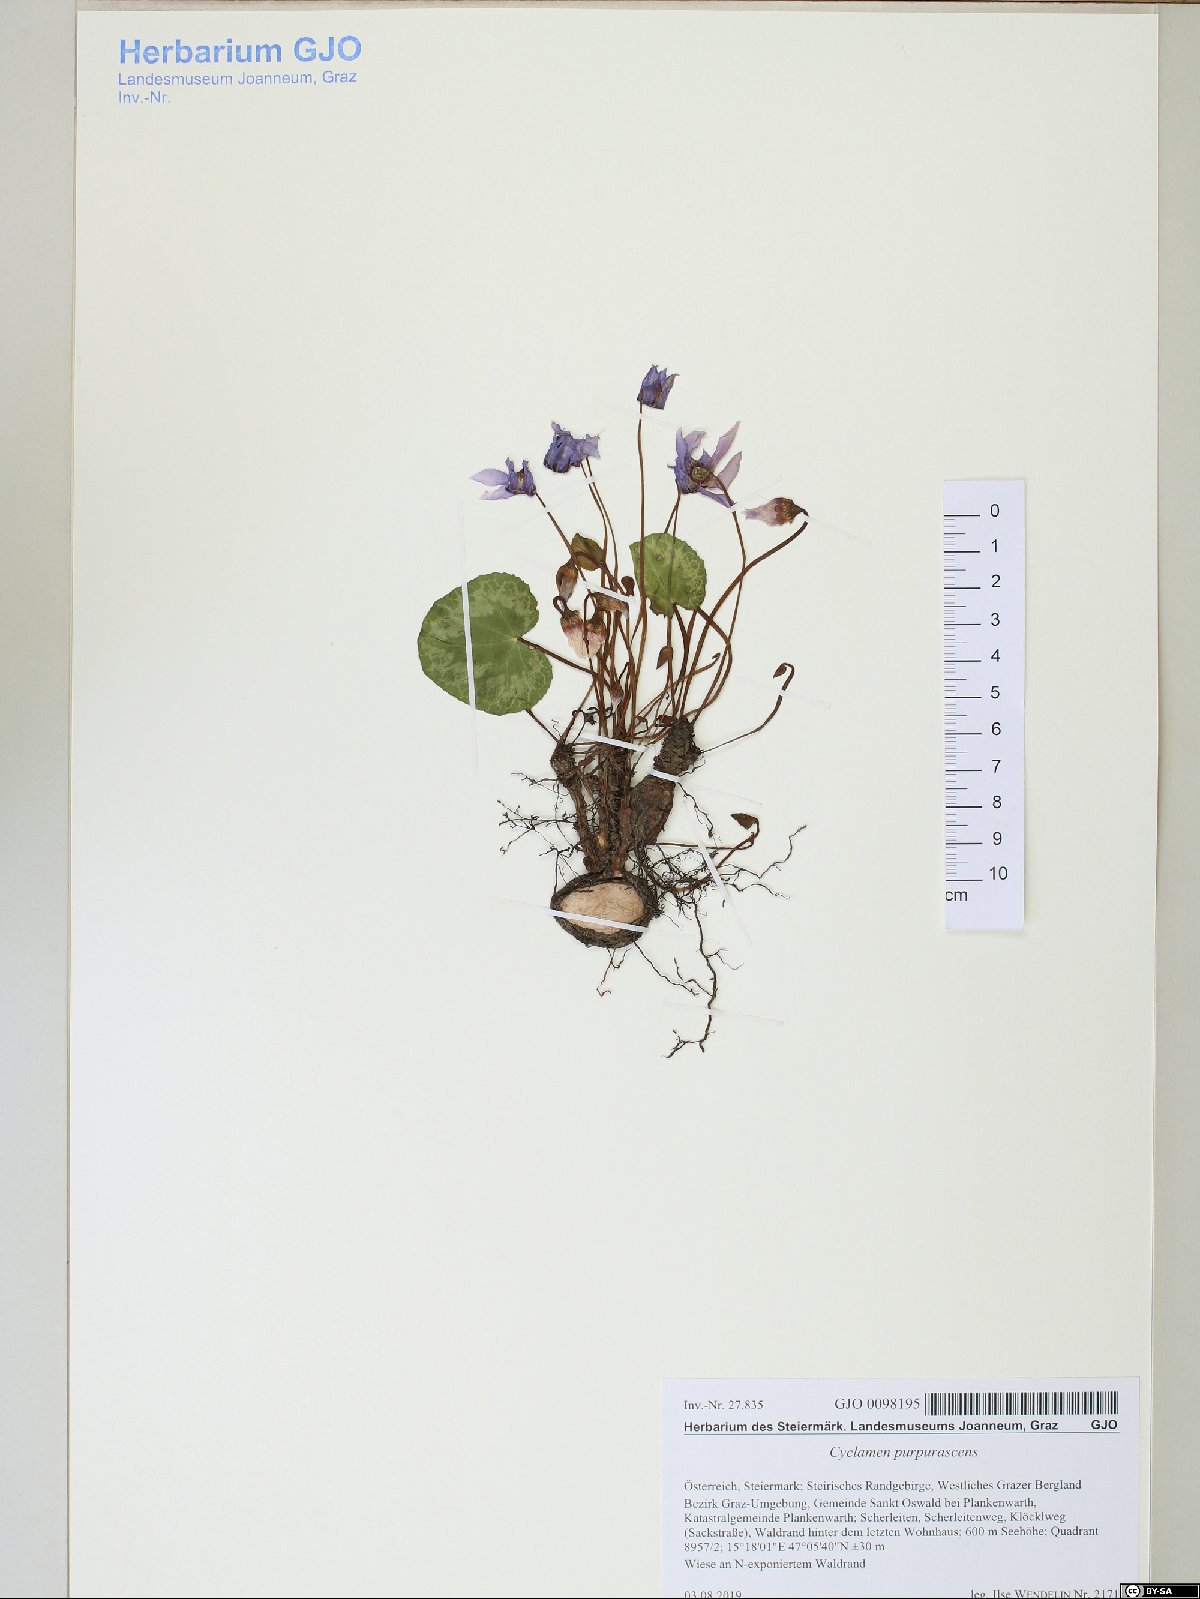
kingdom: Plantae
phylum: Tracheophyta
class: Magnoliopsida
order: Ericales
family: Primulaceae
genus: Cyclamen
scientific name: Cyclamen purpurascens
